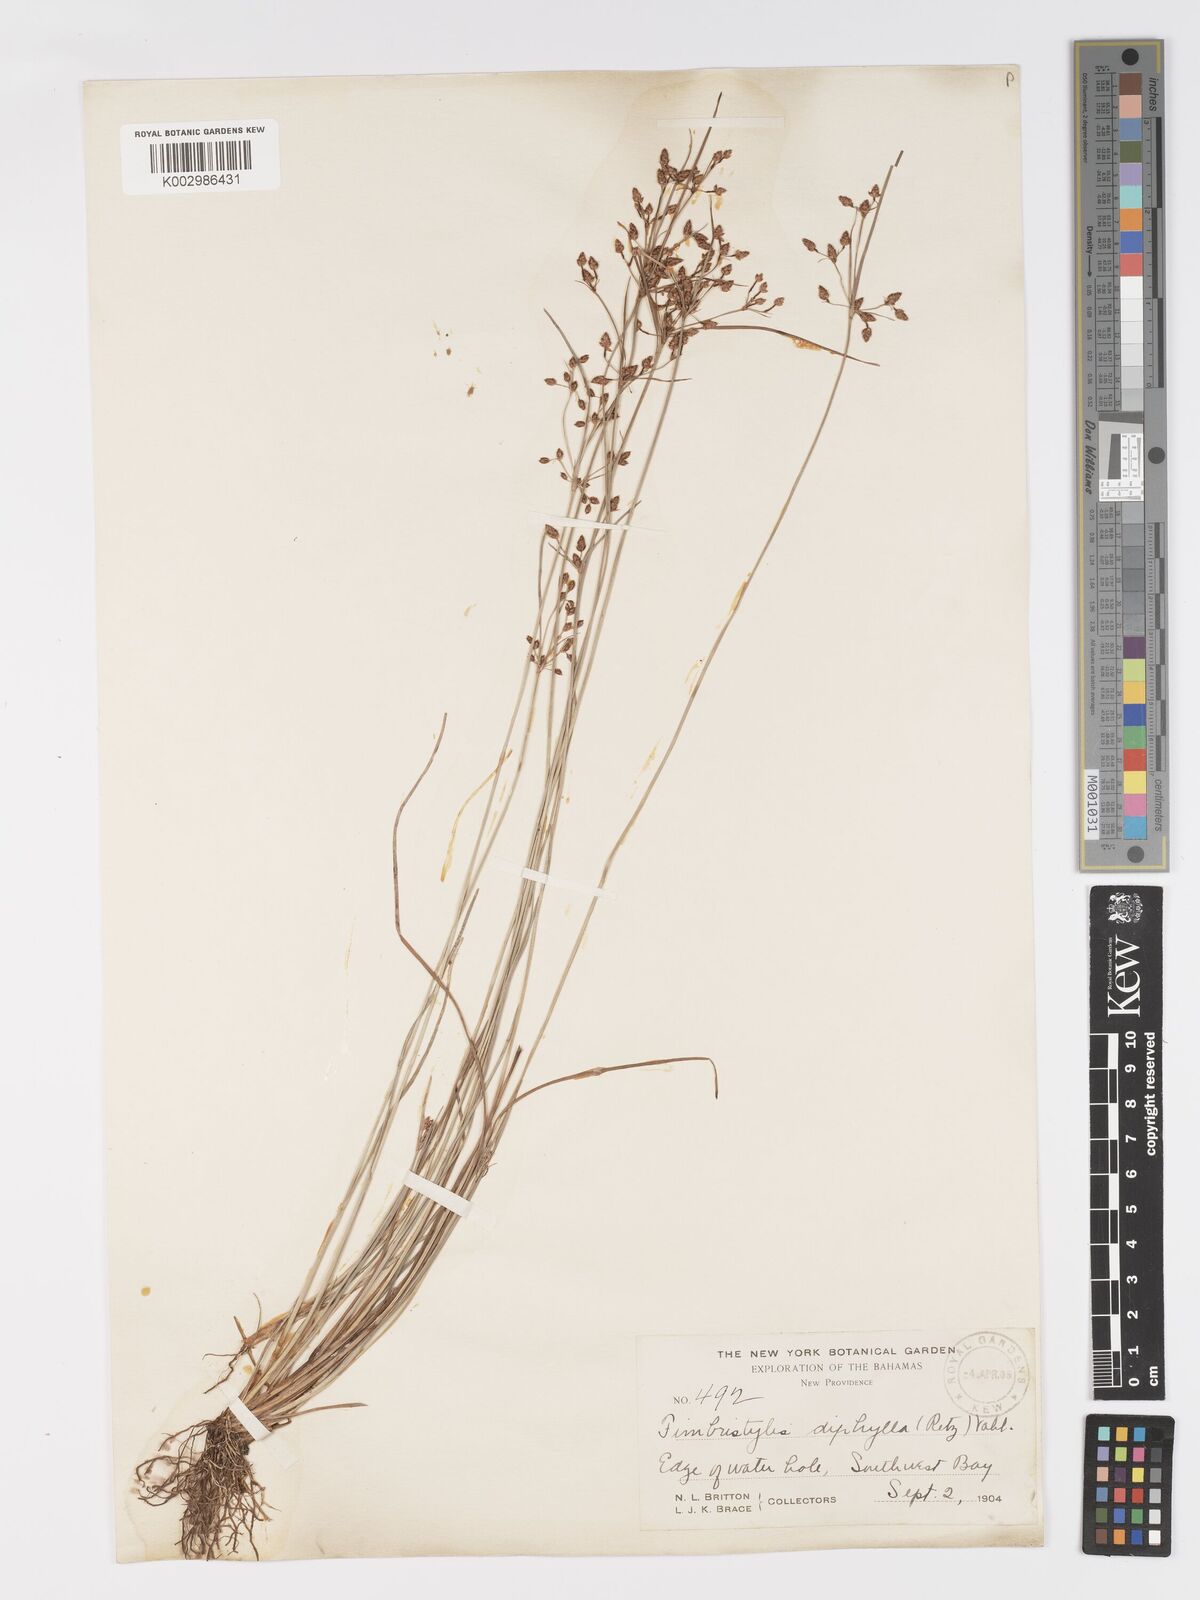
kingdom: Plantae
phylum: Tracheophyta
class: Liliopsida
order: Poales
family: Cyperaceae
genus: Fimbristylis
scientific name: Fimbristylis dichotoma
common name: Forked fimbry
